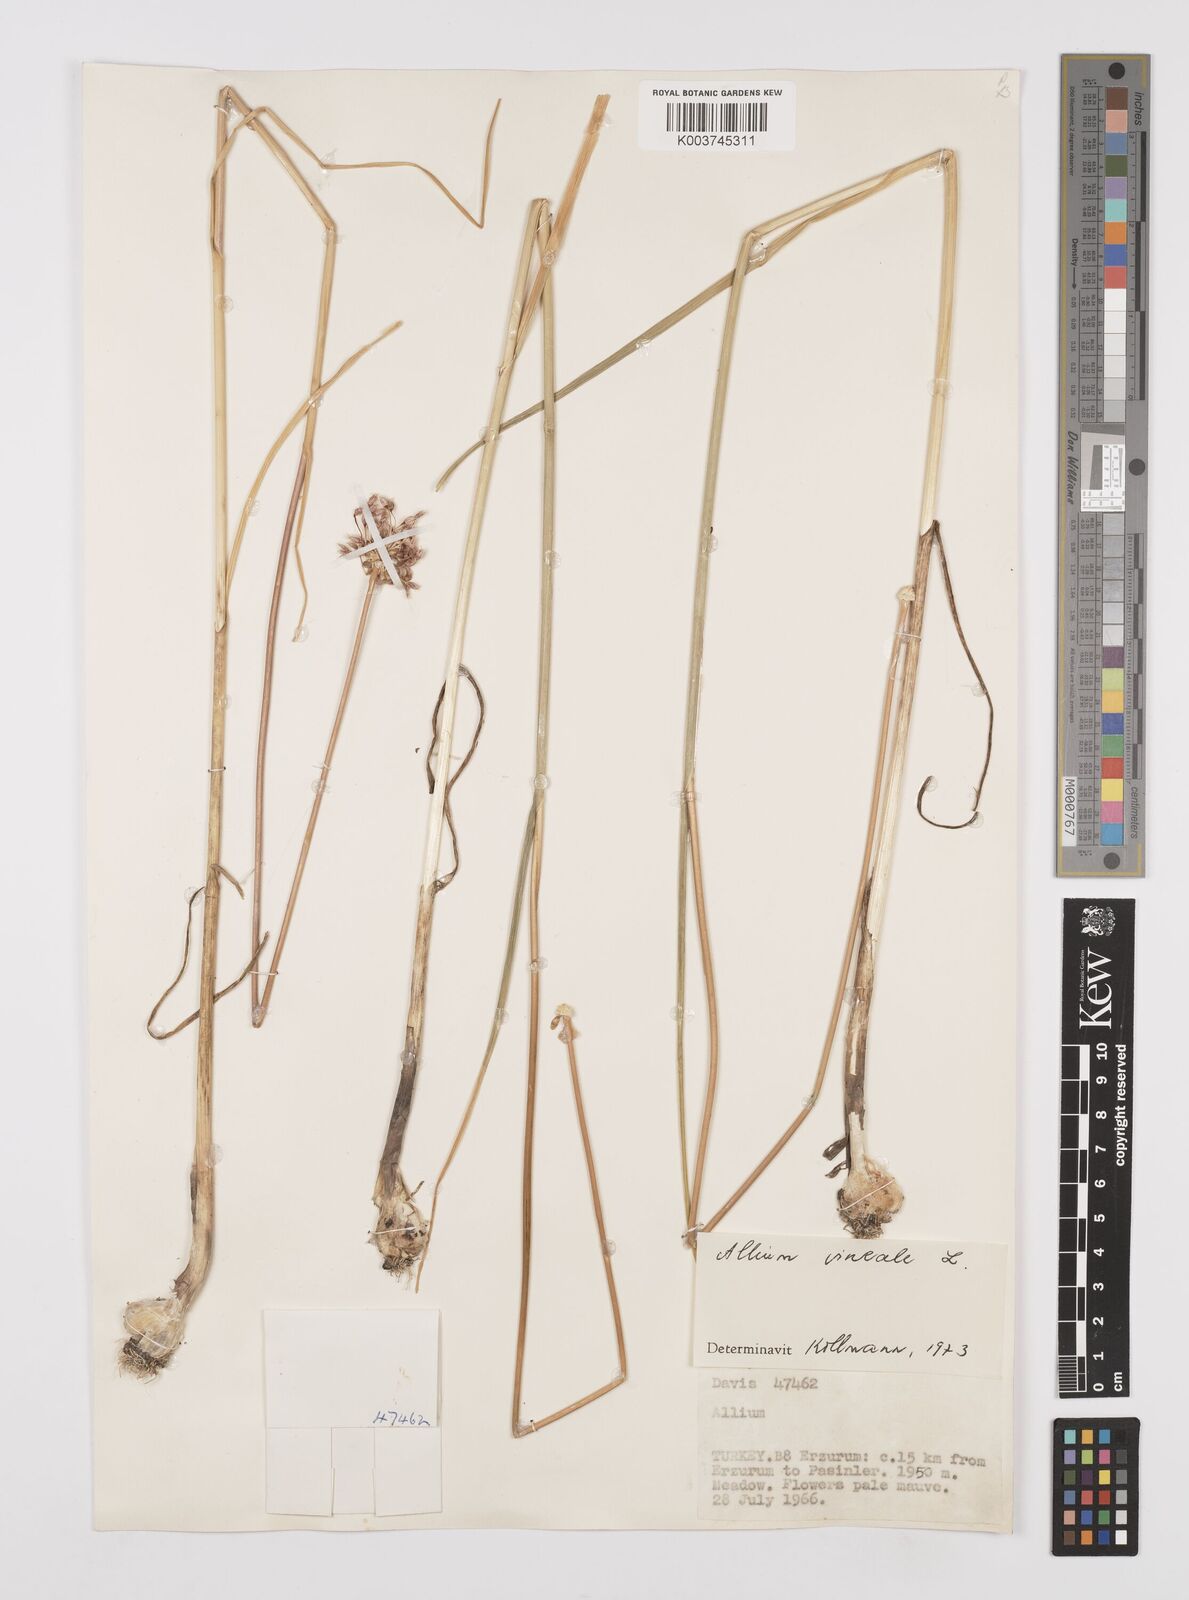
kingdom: Plantae
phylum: Tracheophyta
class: Liliopsida
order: Asparagales
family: Amaryllidaceae
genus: Allium
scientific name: Allium vineale
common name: Crow garlic
